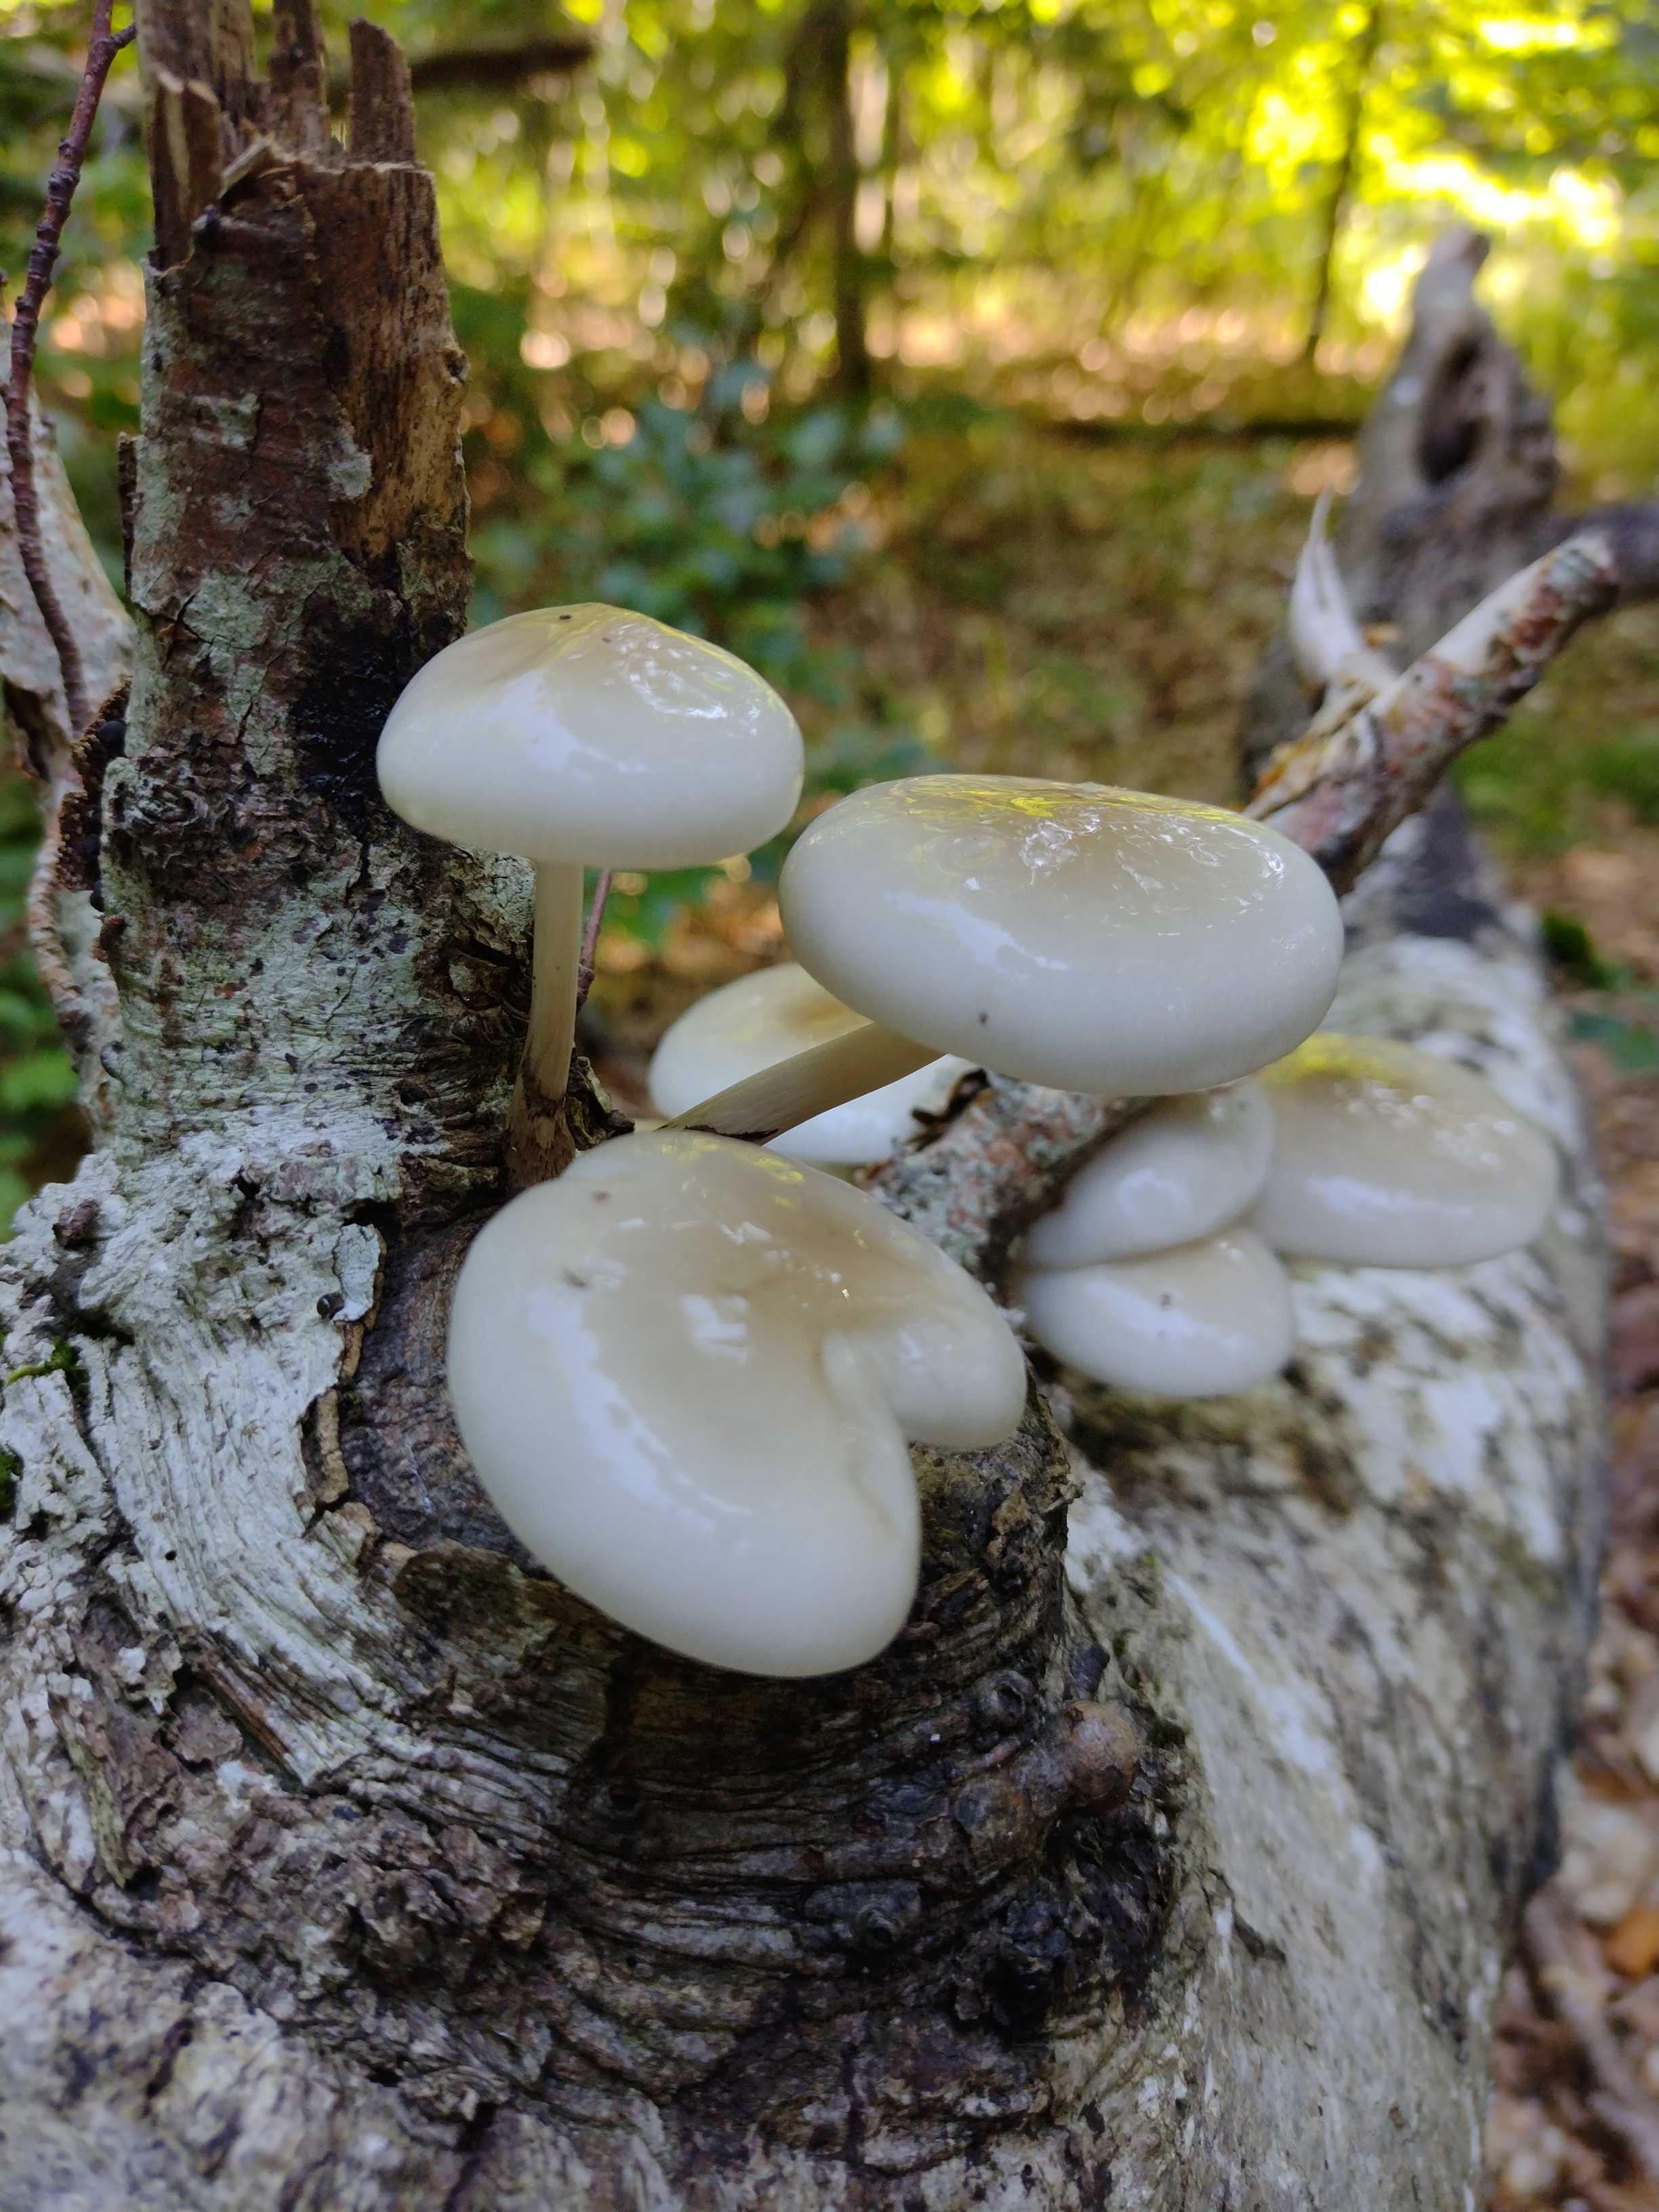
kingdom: Fungi
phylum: Basidiomycota
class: Agaricomycetes
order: Agaricales
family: Physalacriaceae
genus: Mucidula
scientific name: Mucidula mucida
